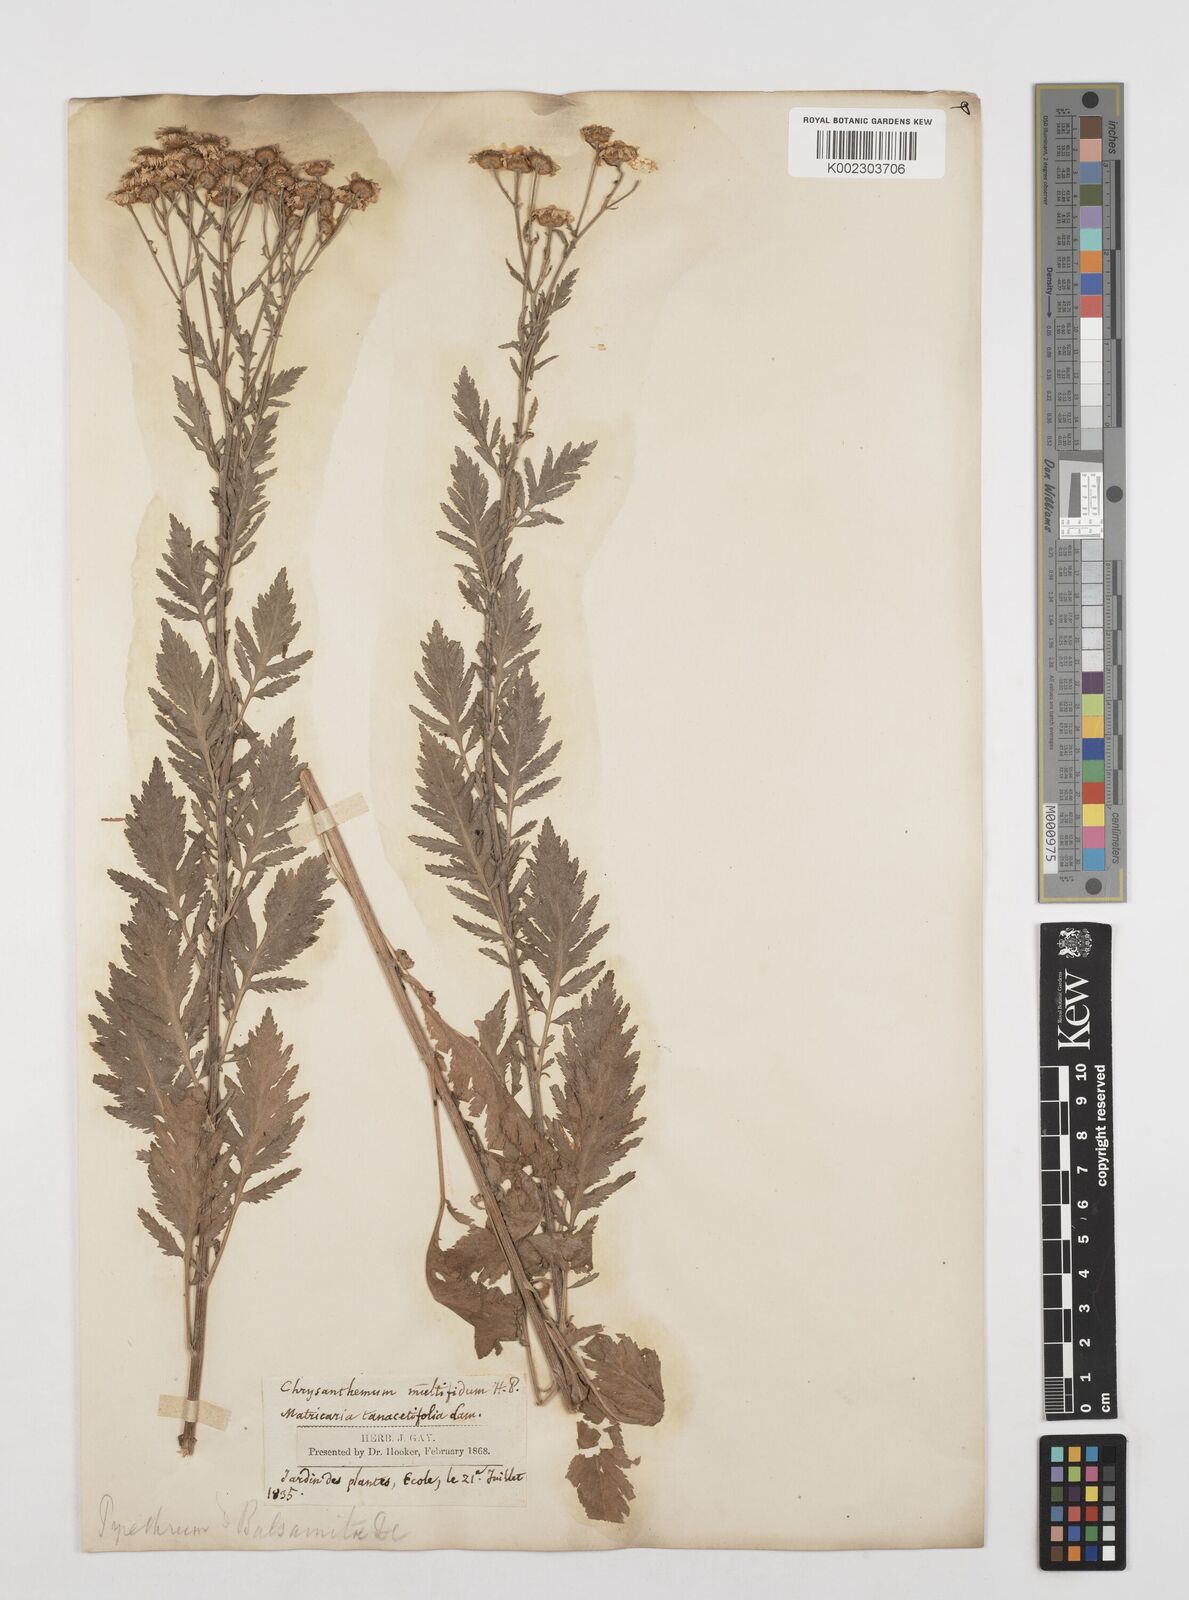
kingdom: Plantae
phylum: Tracheophyta
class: Magnoliopsida
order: Asterales
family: Asteraceae
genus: Oncosiphon
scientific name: Oncosiphon suffruticosus
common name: Shrubby mayweed
